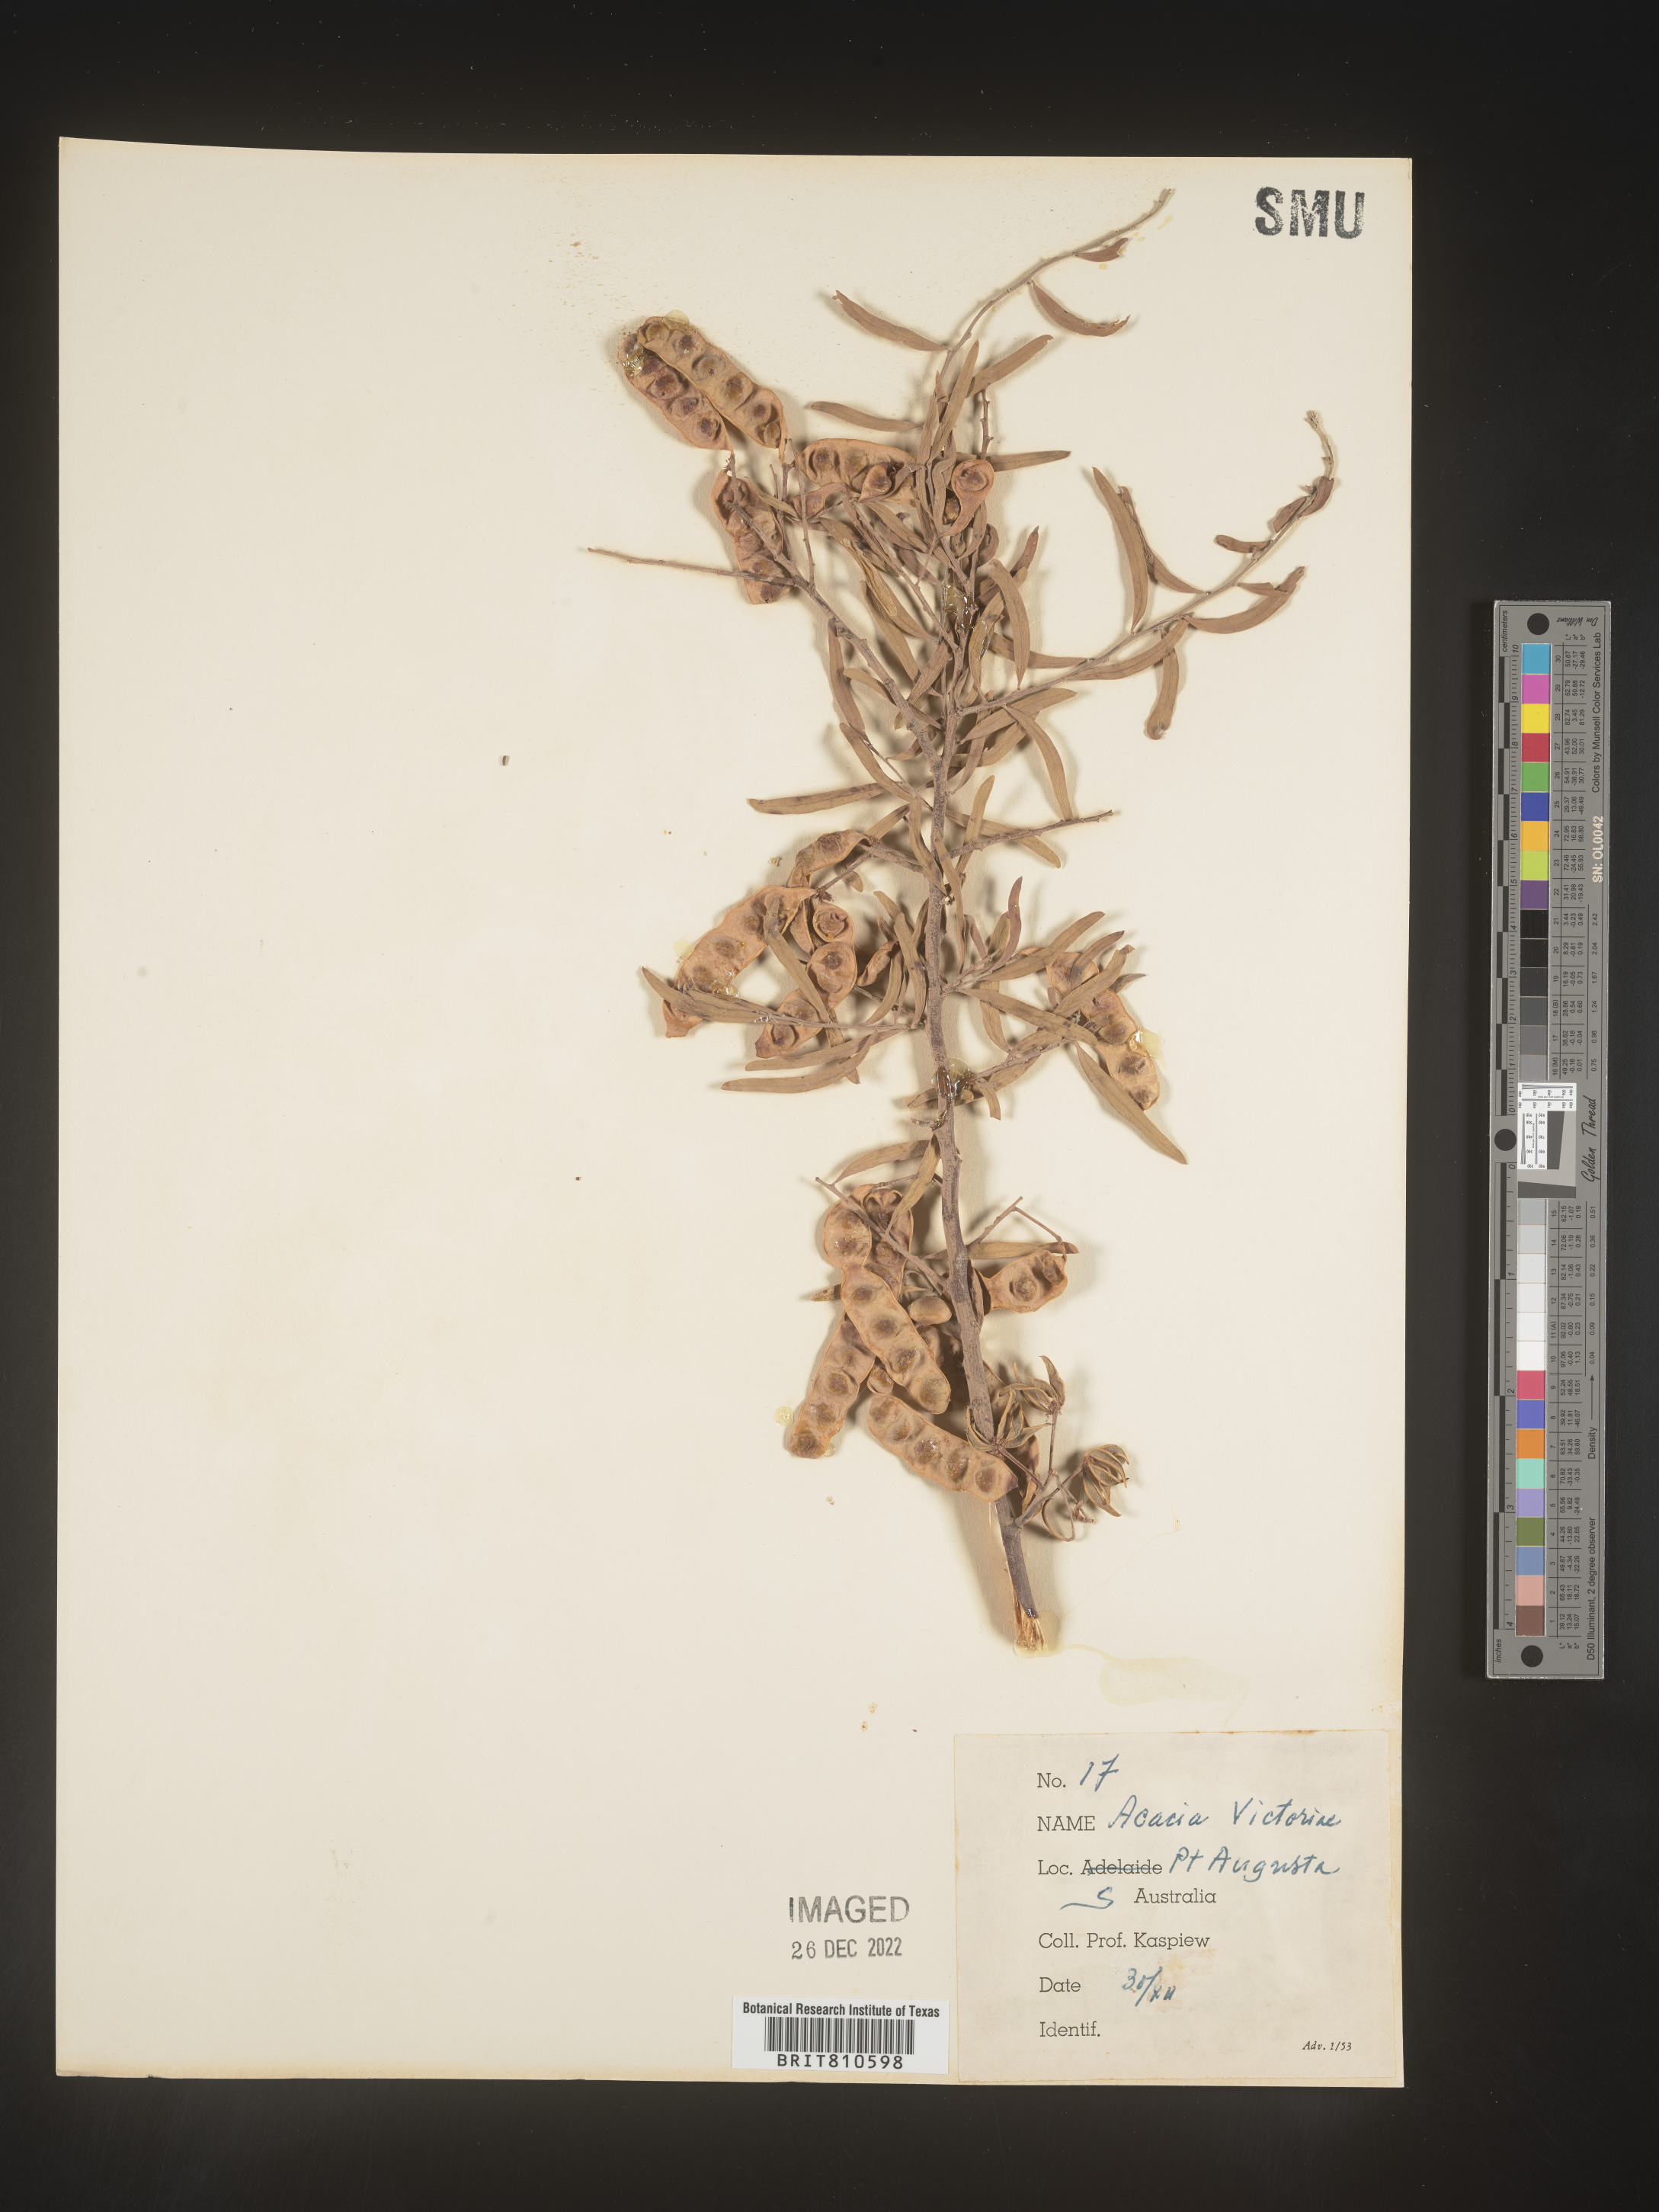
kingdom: Plantae
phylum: Tracheophyta
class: Magnoliopsida
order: Fabales
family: Fabaceae
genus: Acacia
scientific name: Acacia
